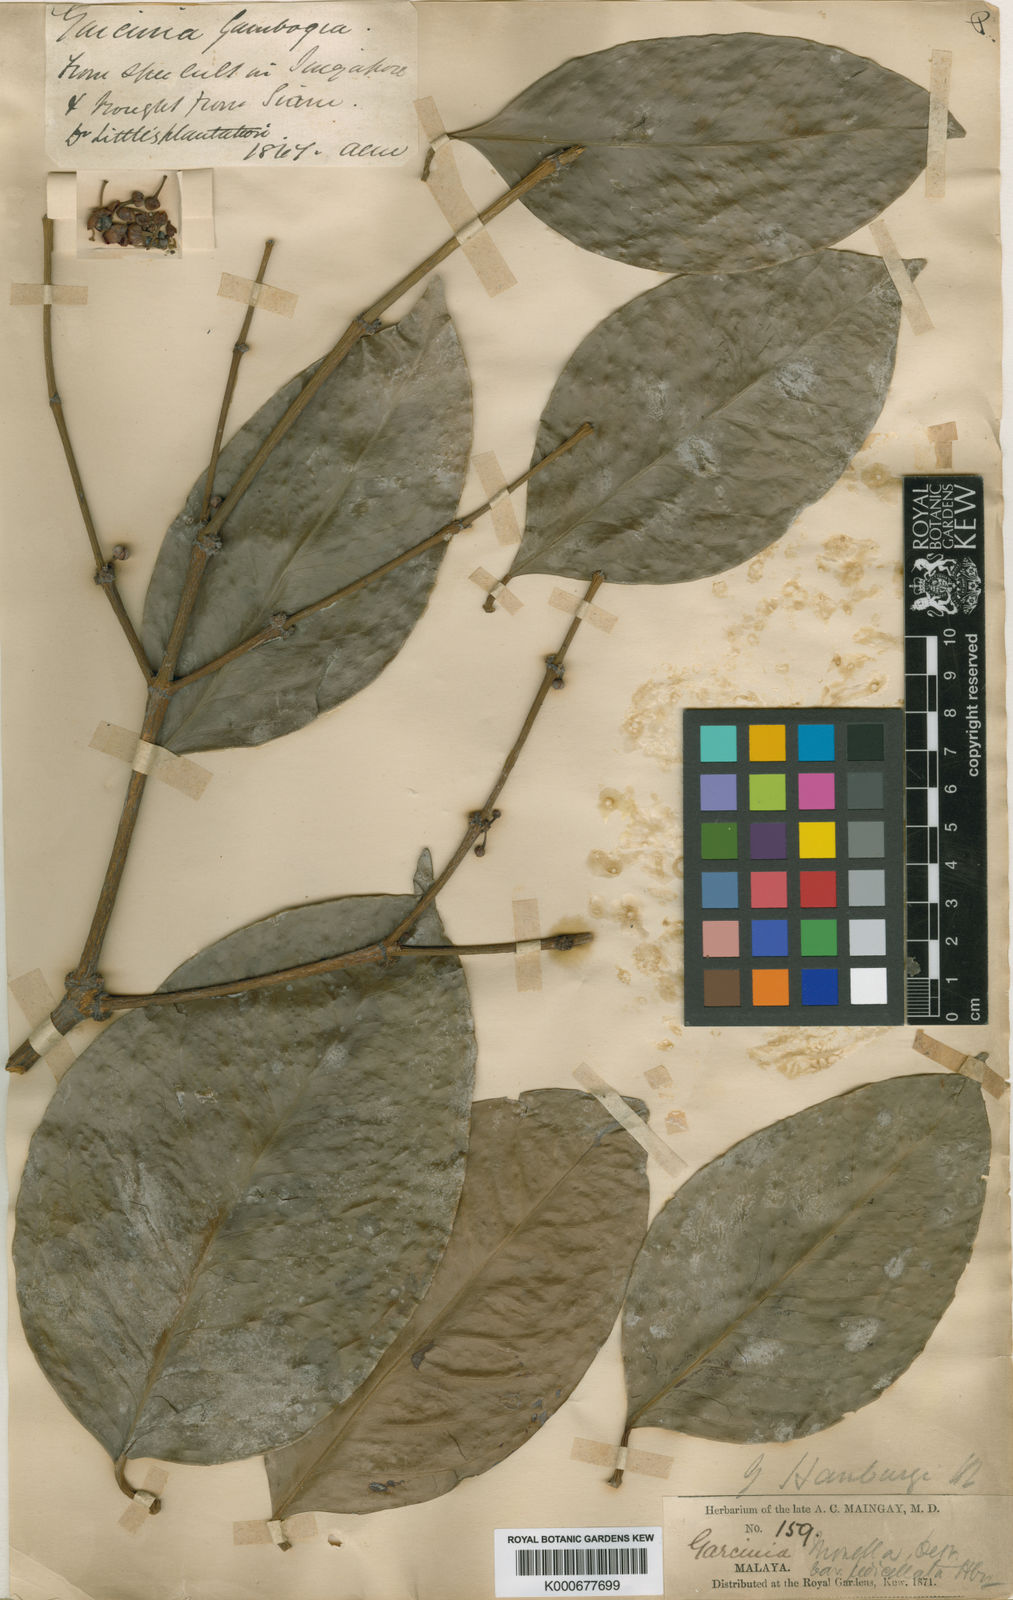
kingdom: Plantae
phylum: Tracheophyta
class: Magnoliopsida
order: Malpighiales
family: Clusiaceae
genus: Garcinia
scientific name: Garcinia hanburyi
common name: Siam gamboge
